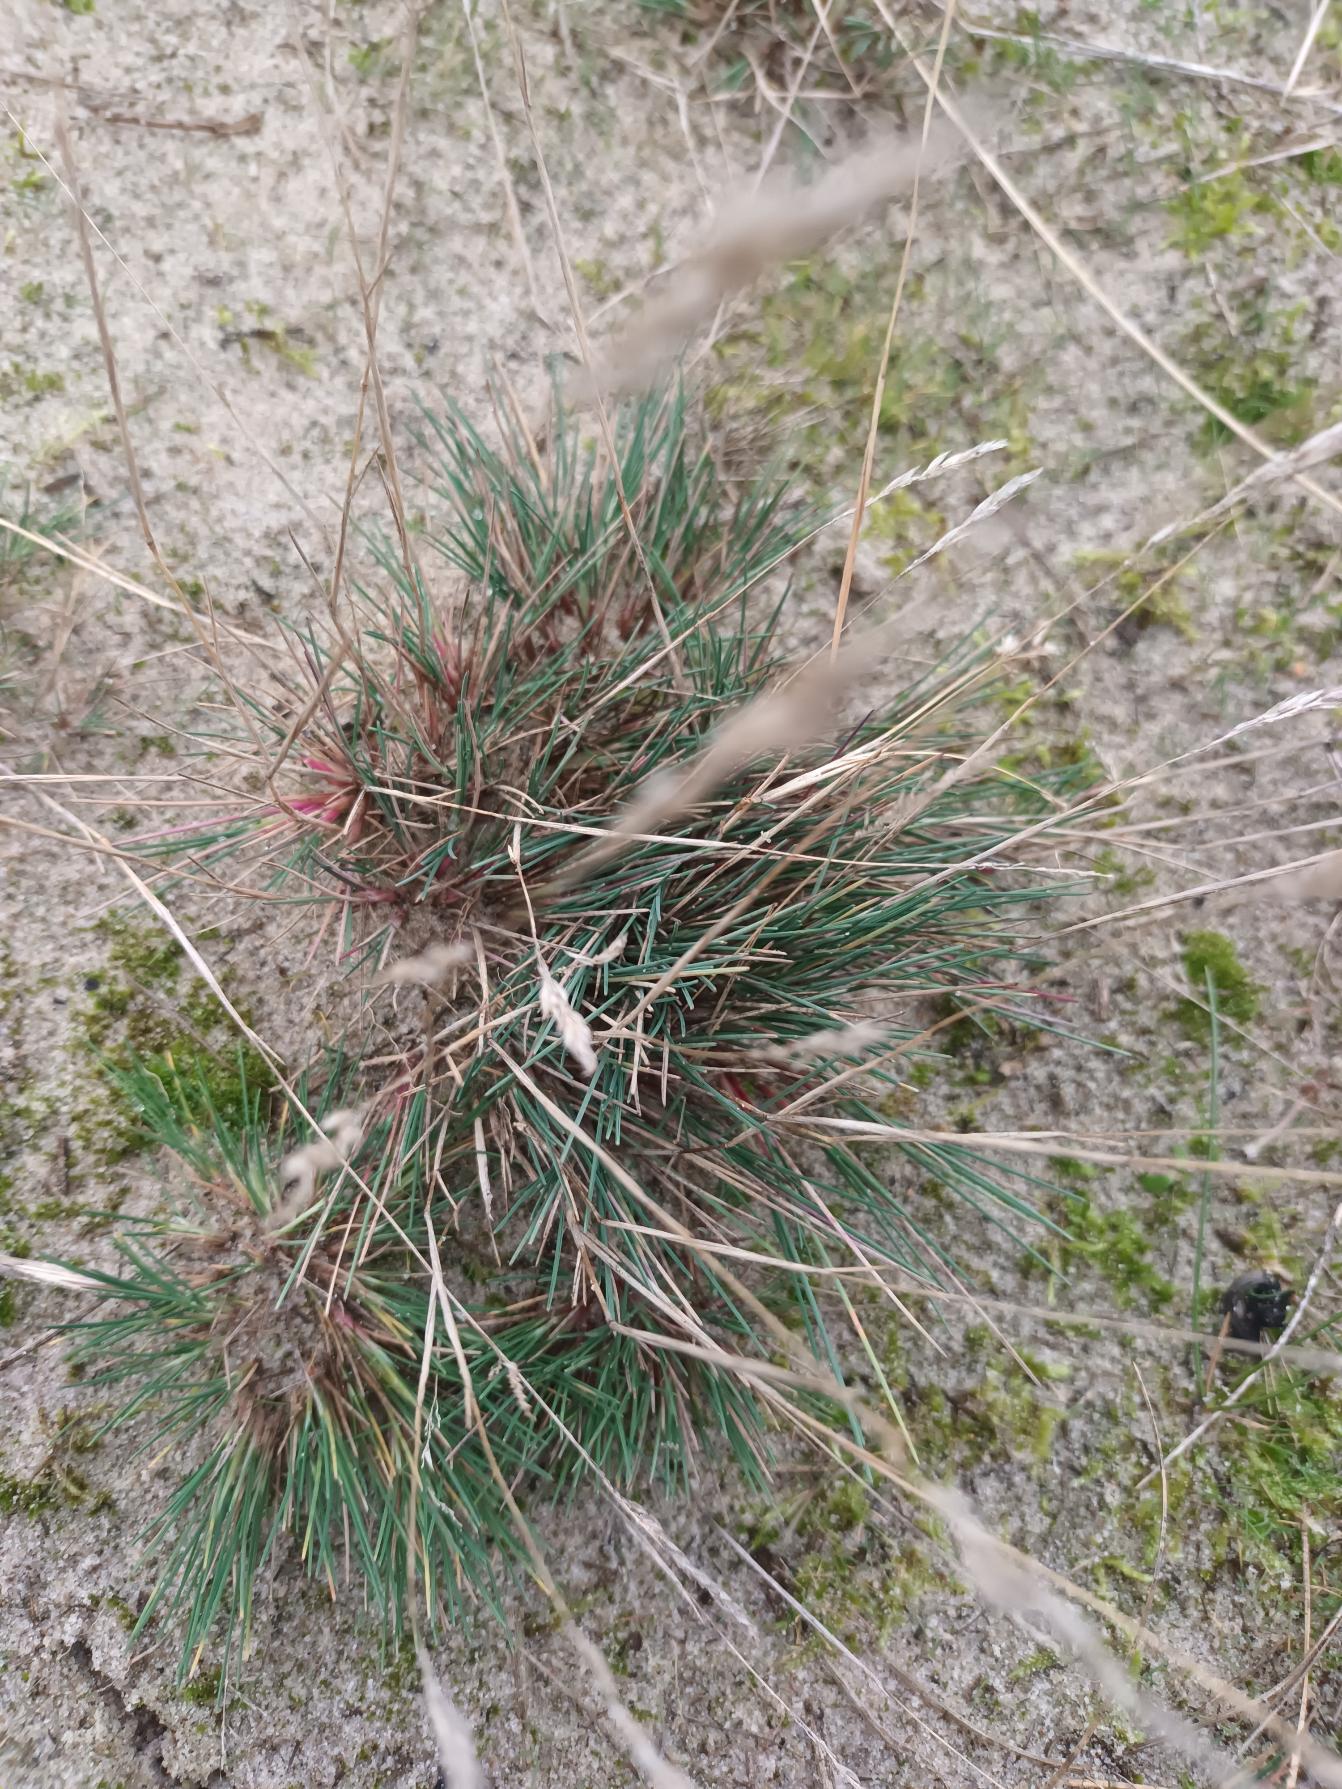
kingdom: Plantae
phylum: Tracheophyta
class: Liliopsida
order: Poales
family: Poaceae
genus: Corynephorus
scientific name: Corynephorus canescens
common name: Sandskæg
